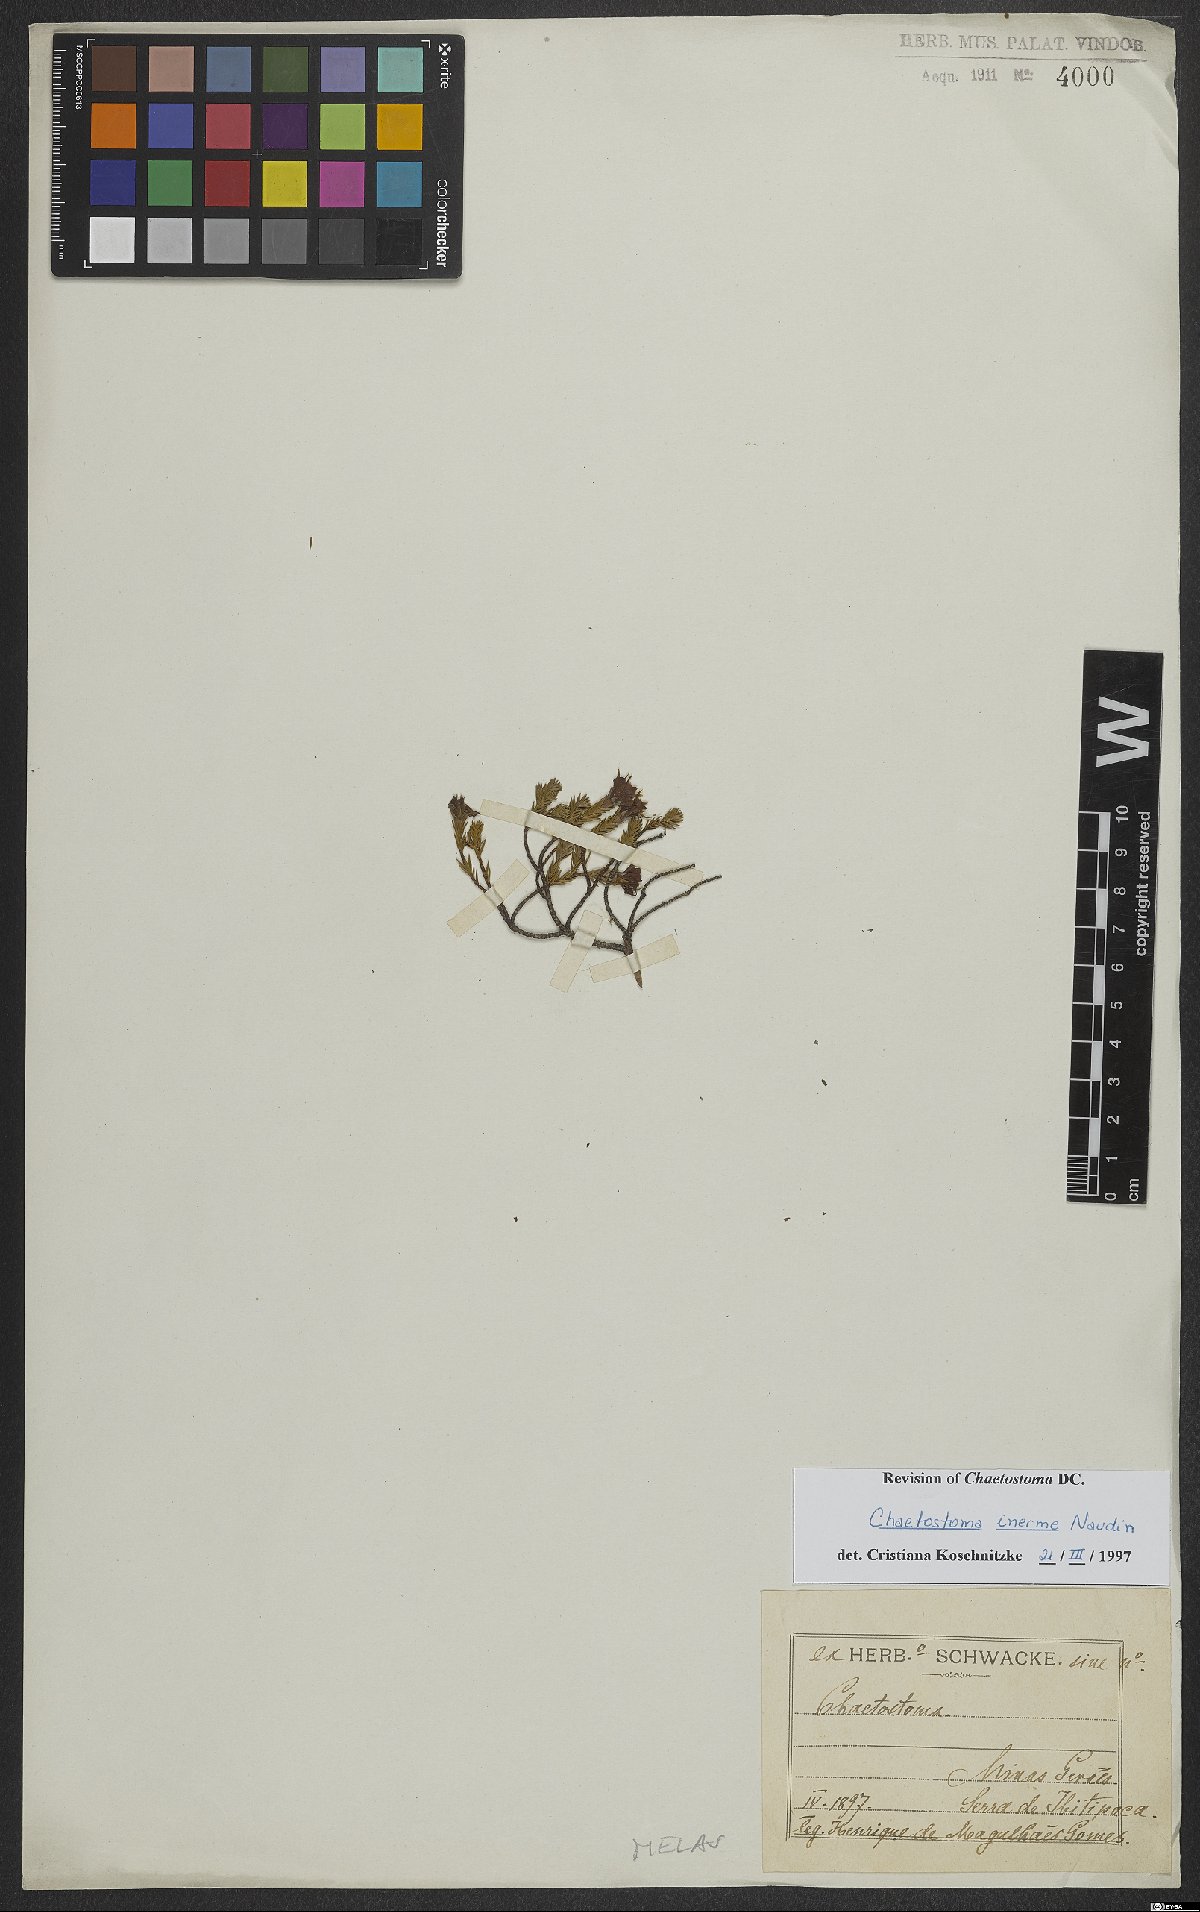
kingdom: Plantae
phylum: Tracheophyta
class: Magnoliopsida
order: Myrtales
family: Melastomataceae
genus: Microlicia
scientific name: Microlicia inermis
